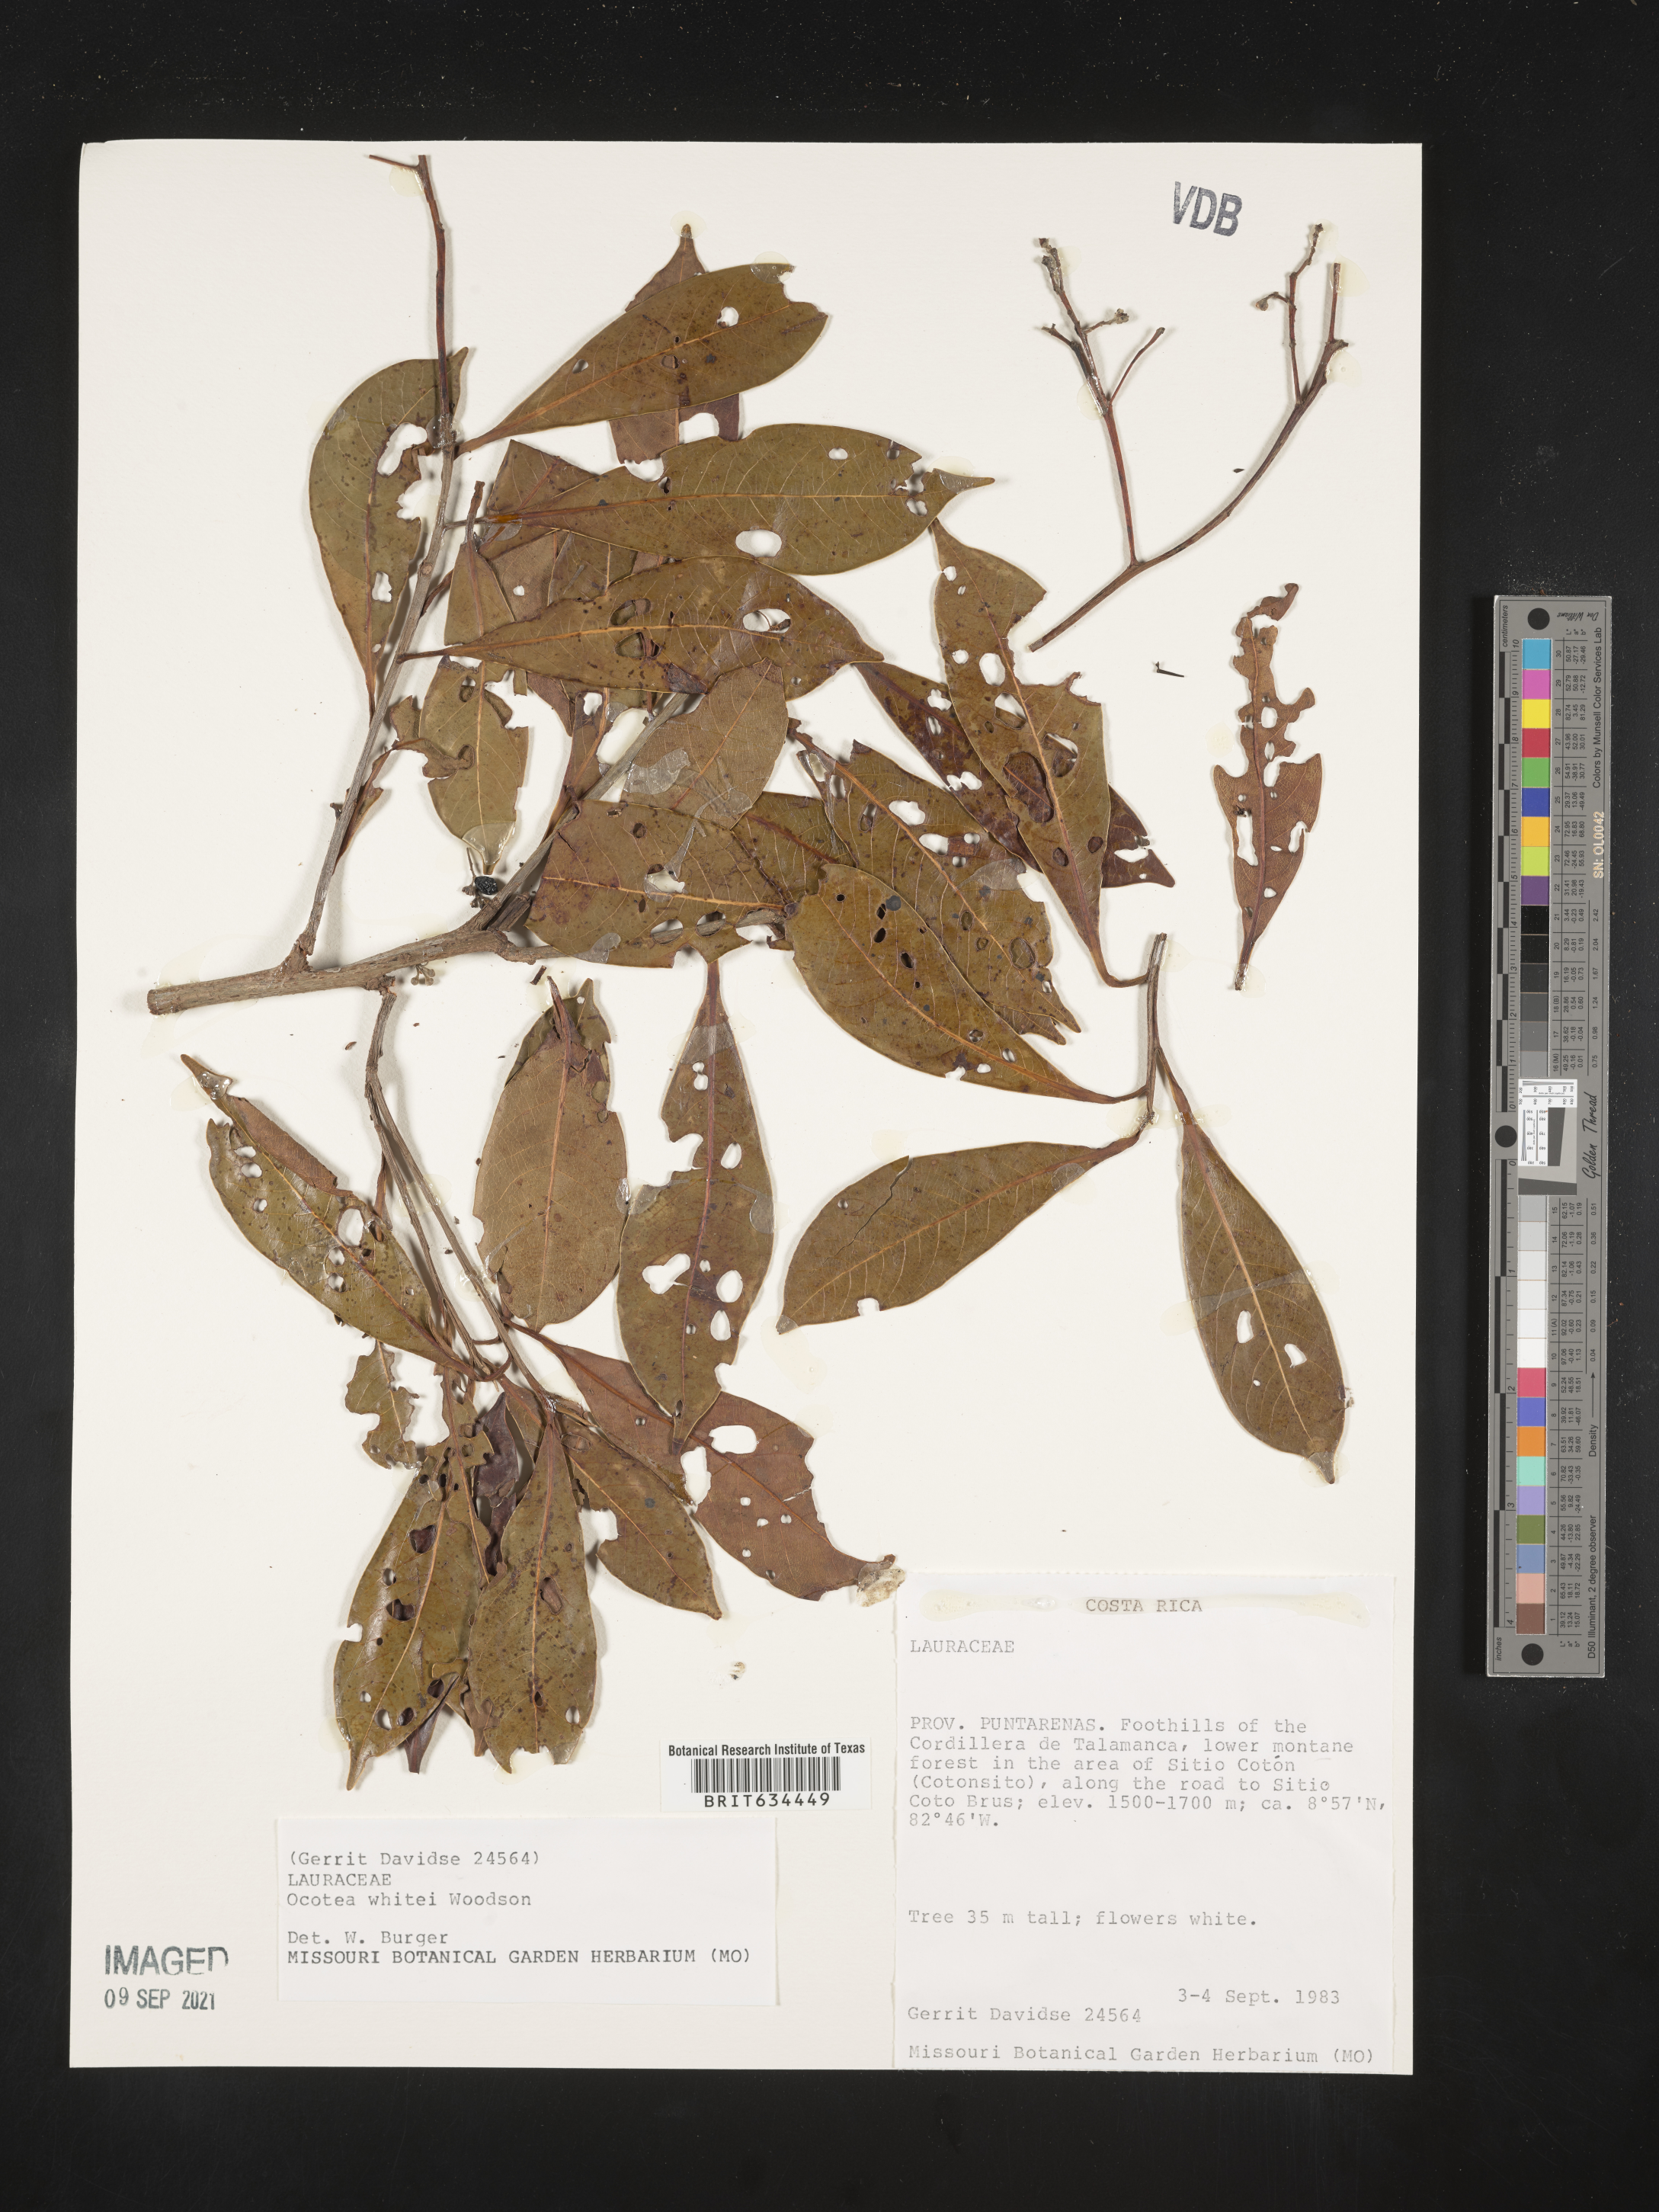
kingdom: Plantae
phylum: Tracheophyta
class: Magnoliopsida
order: Laurales
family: Lauraceae
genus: Ocotea
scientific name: Ocotea
